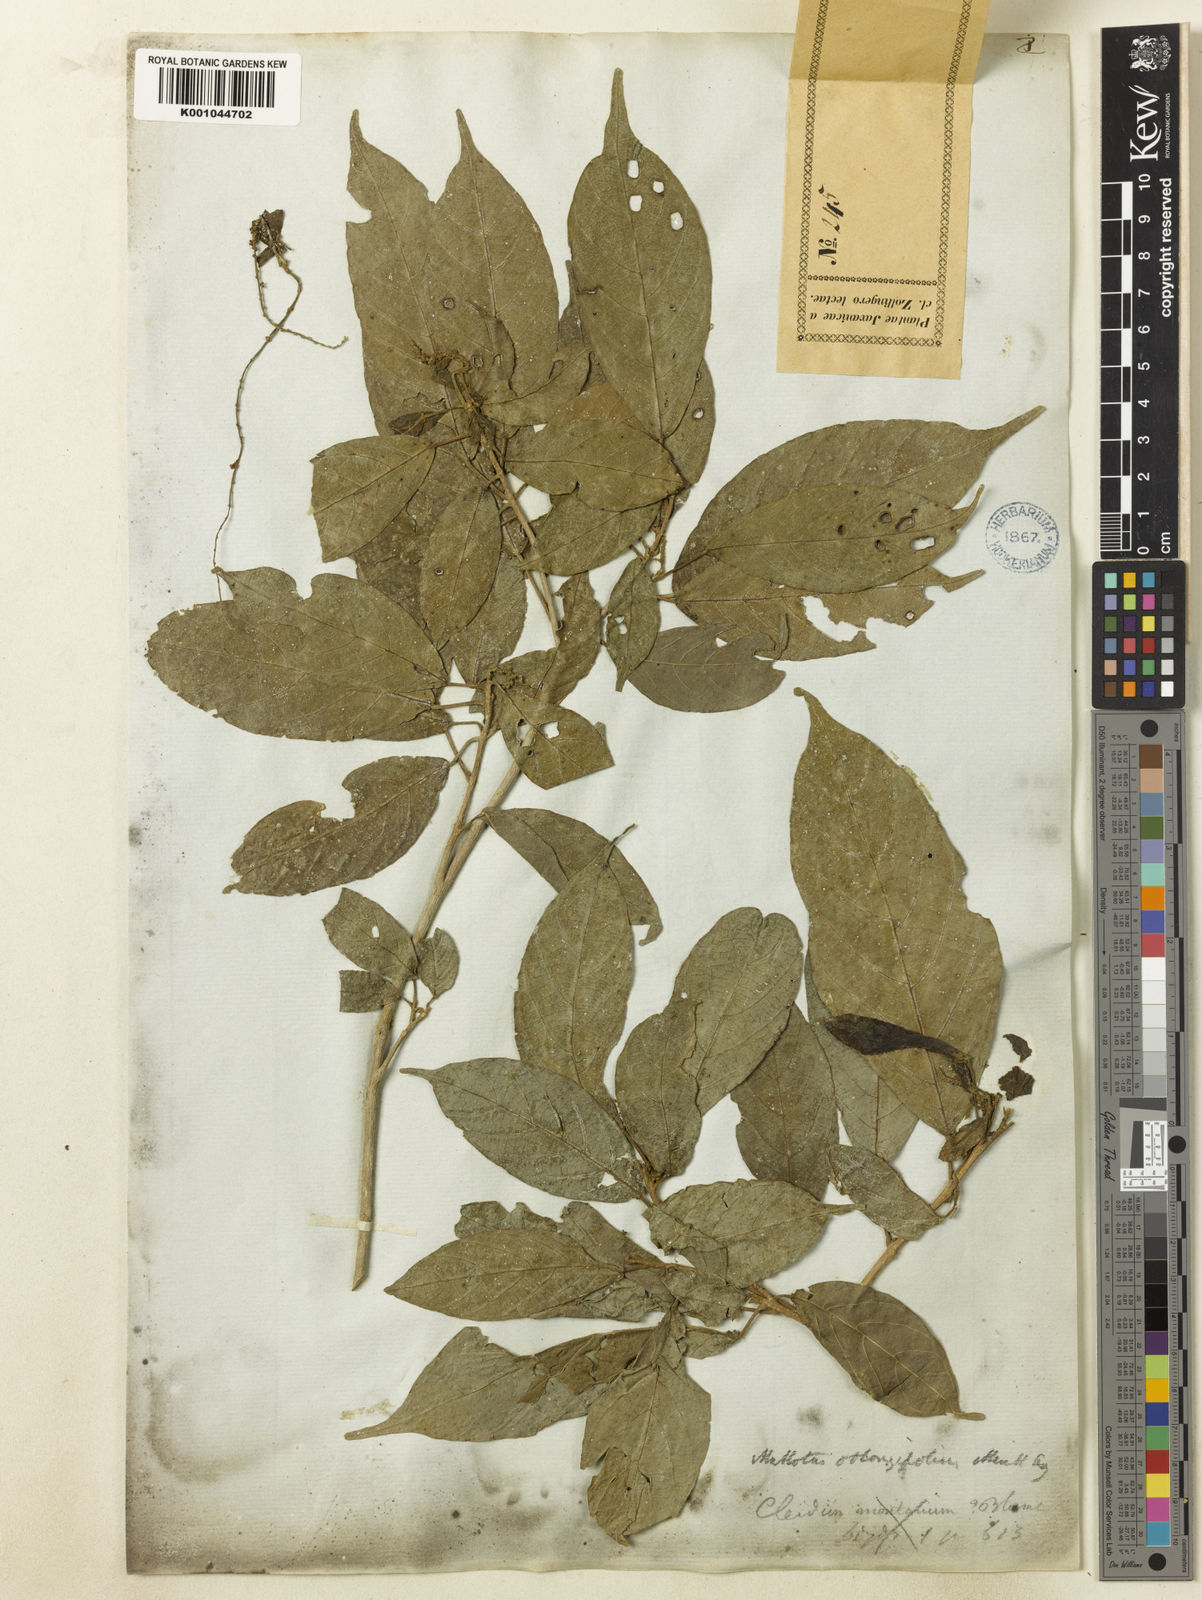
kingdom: Plantae
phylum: Tracheophyta
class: Magnoliopsida
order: Malpighiales
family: Euphorbiaceae
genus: Mallotus
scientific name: Mallotus peltatus
